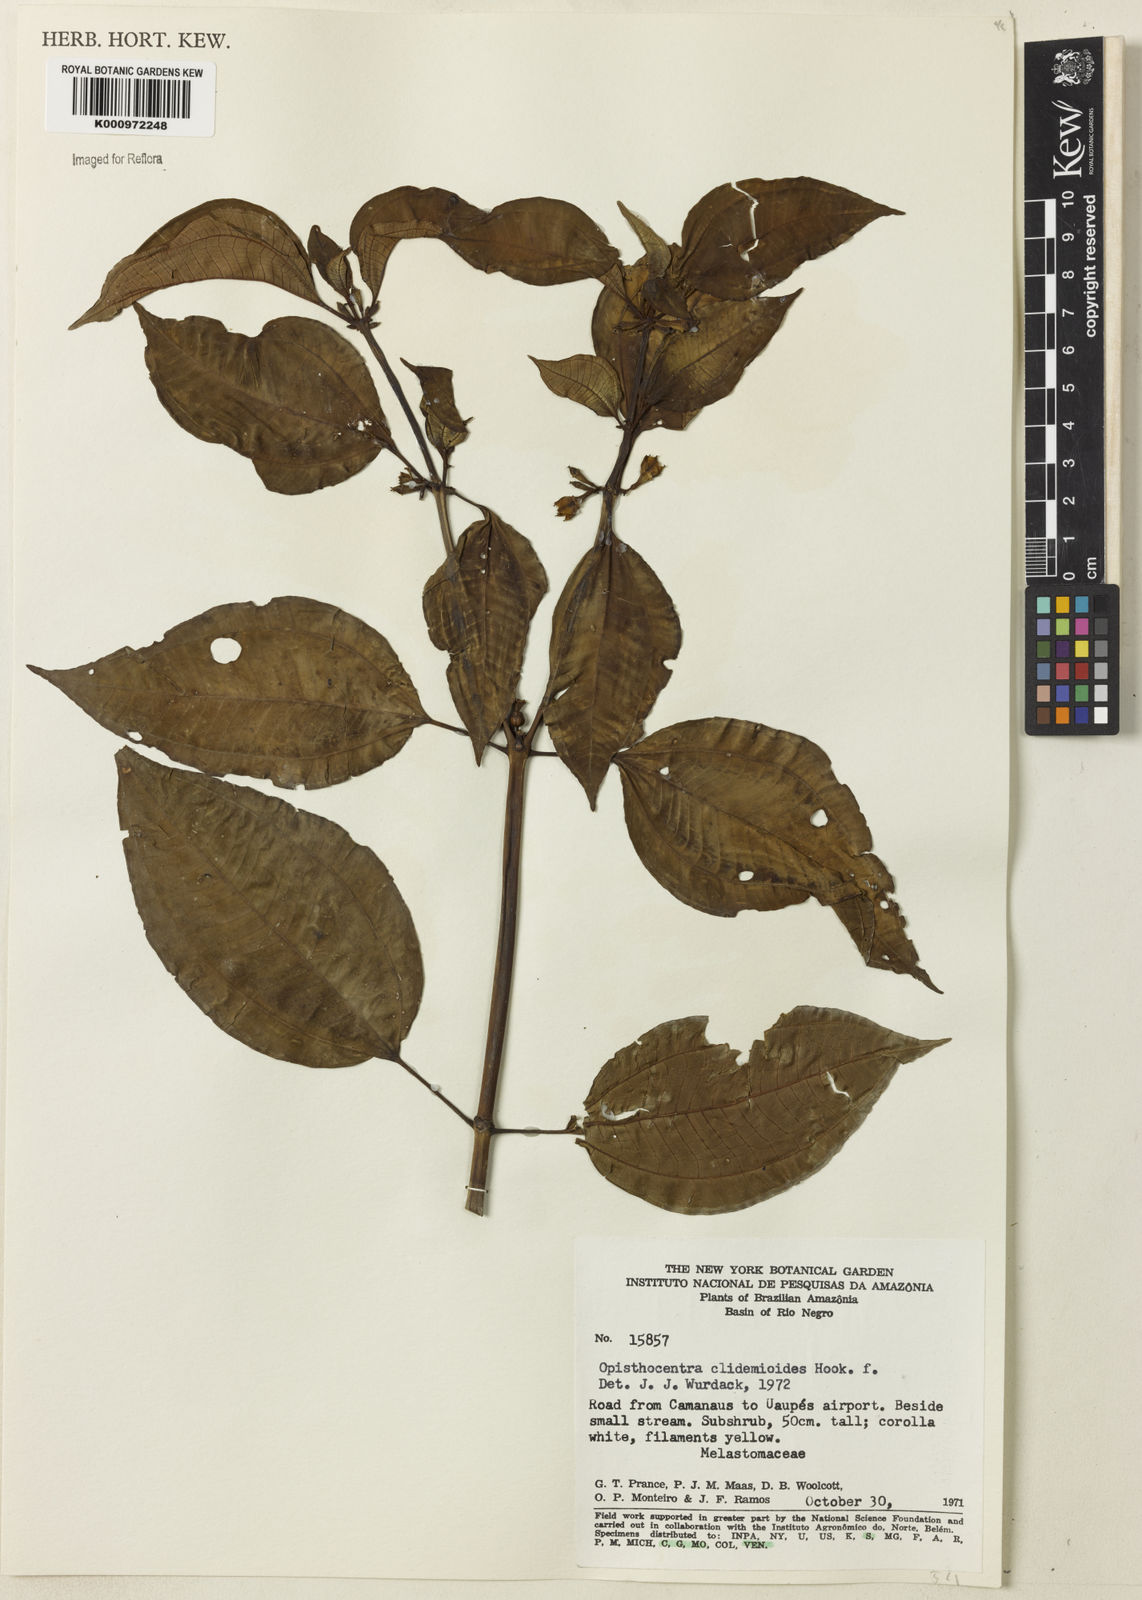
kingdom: Plantae
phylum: Tracheophyta
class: Magnoliopsida
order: Myrtales
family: Melastomataceae
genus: Opisthocentra
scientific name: Opisthocentra clidemioides
